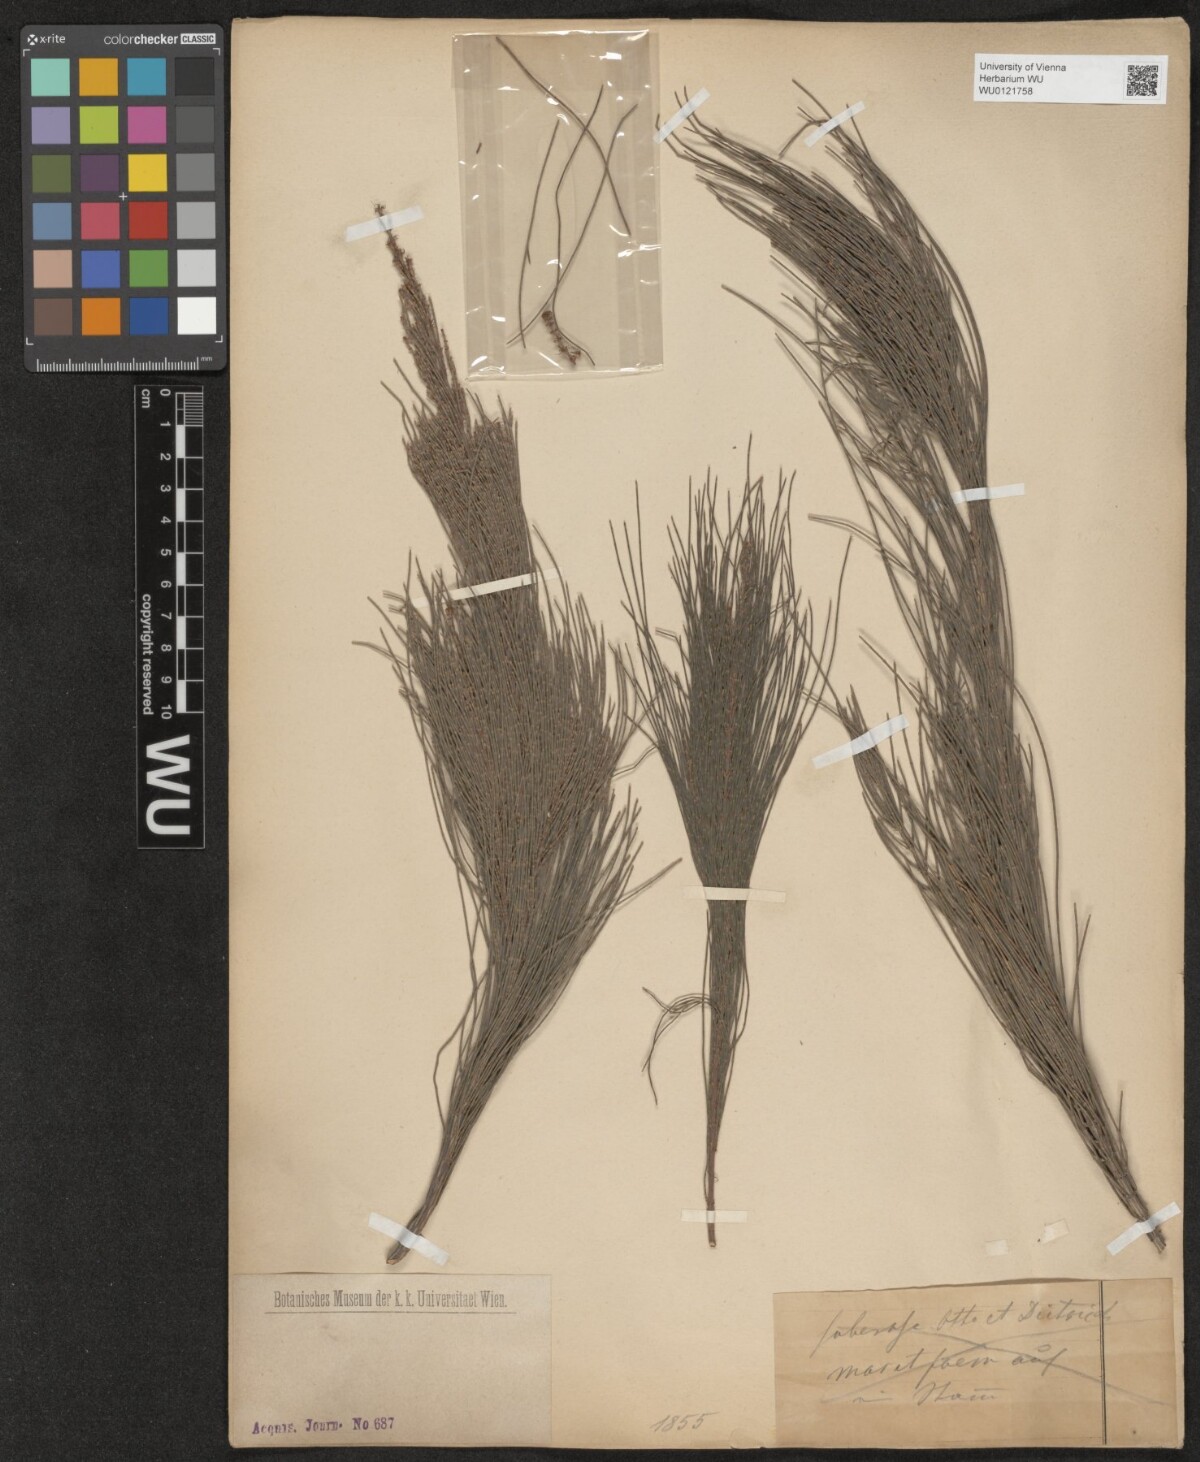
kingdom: Plantae
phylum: Tracheophyta
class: Magnoliopsida
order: Fagales
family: Casuarinaceae
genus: Casuarina
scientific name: Casuarina
